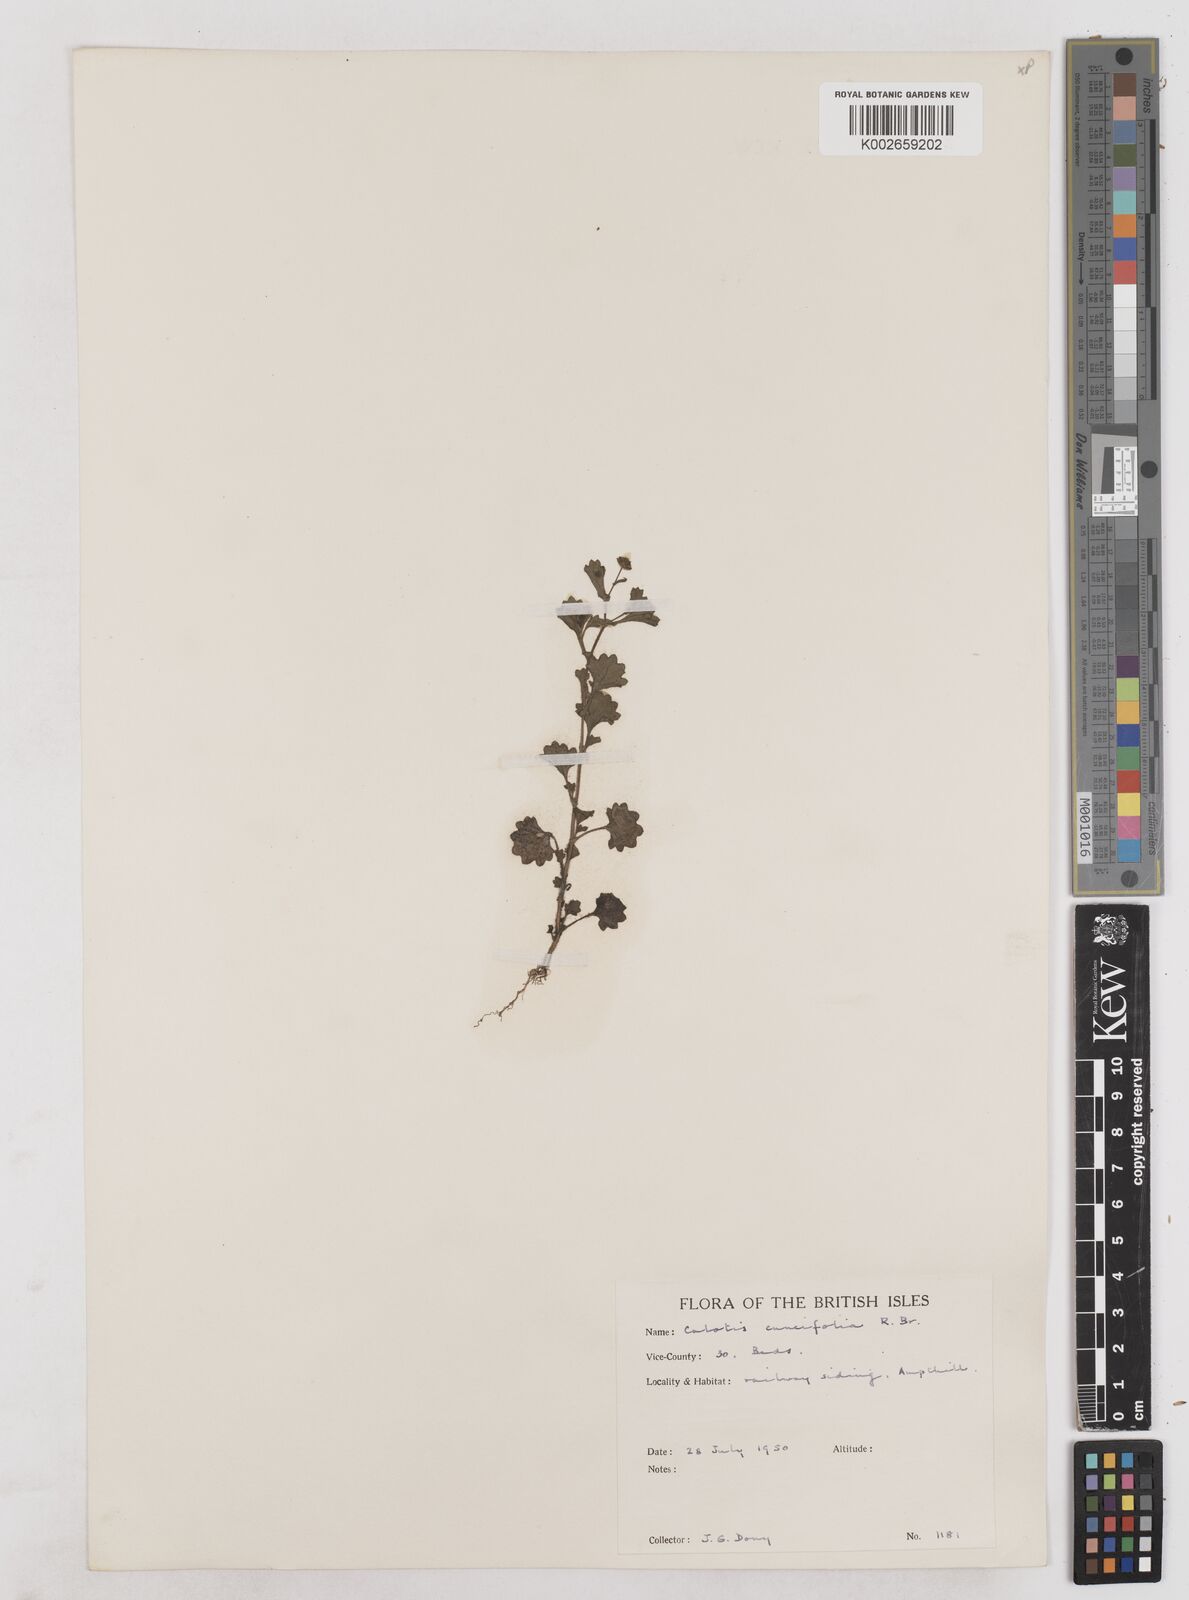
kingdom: Plantae
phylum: Tracheophyta
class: Magnoliopsida
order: Asterales
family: Asteraceae
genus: Calotis
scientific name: Calotis cuneifolia
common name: Bur-daisy
